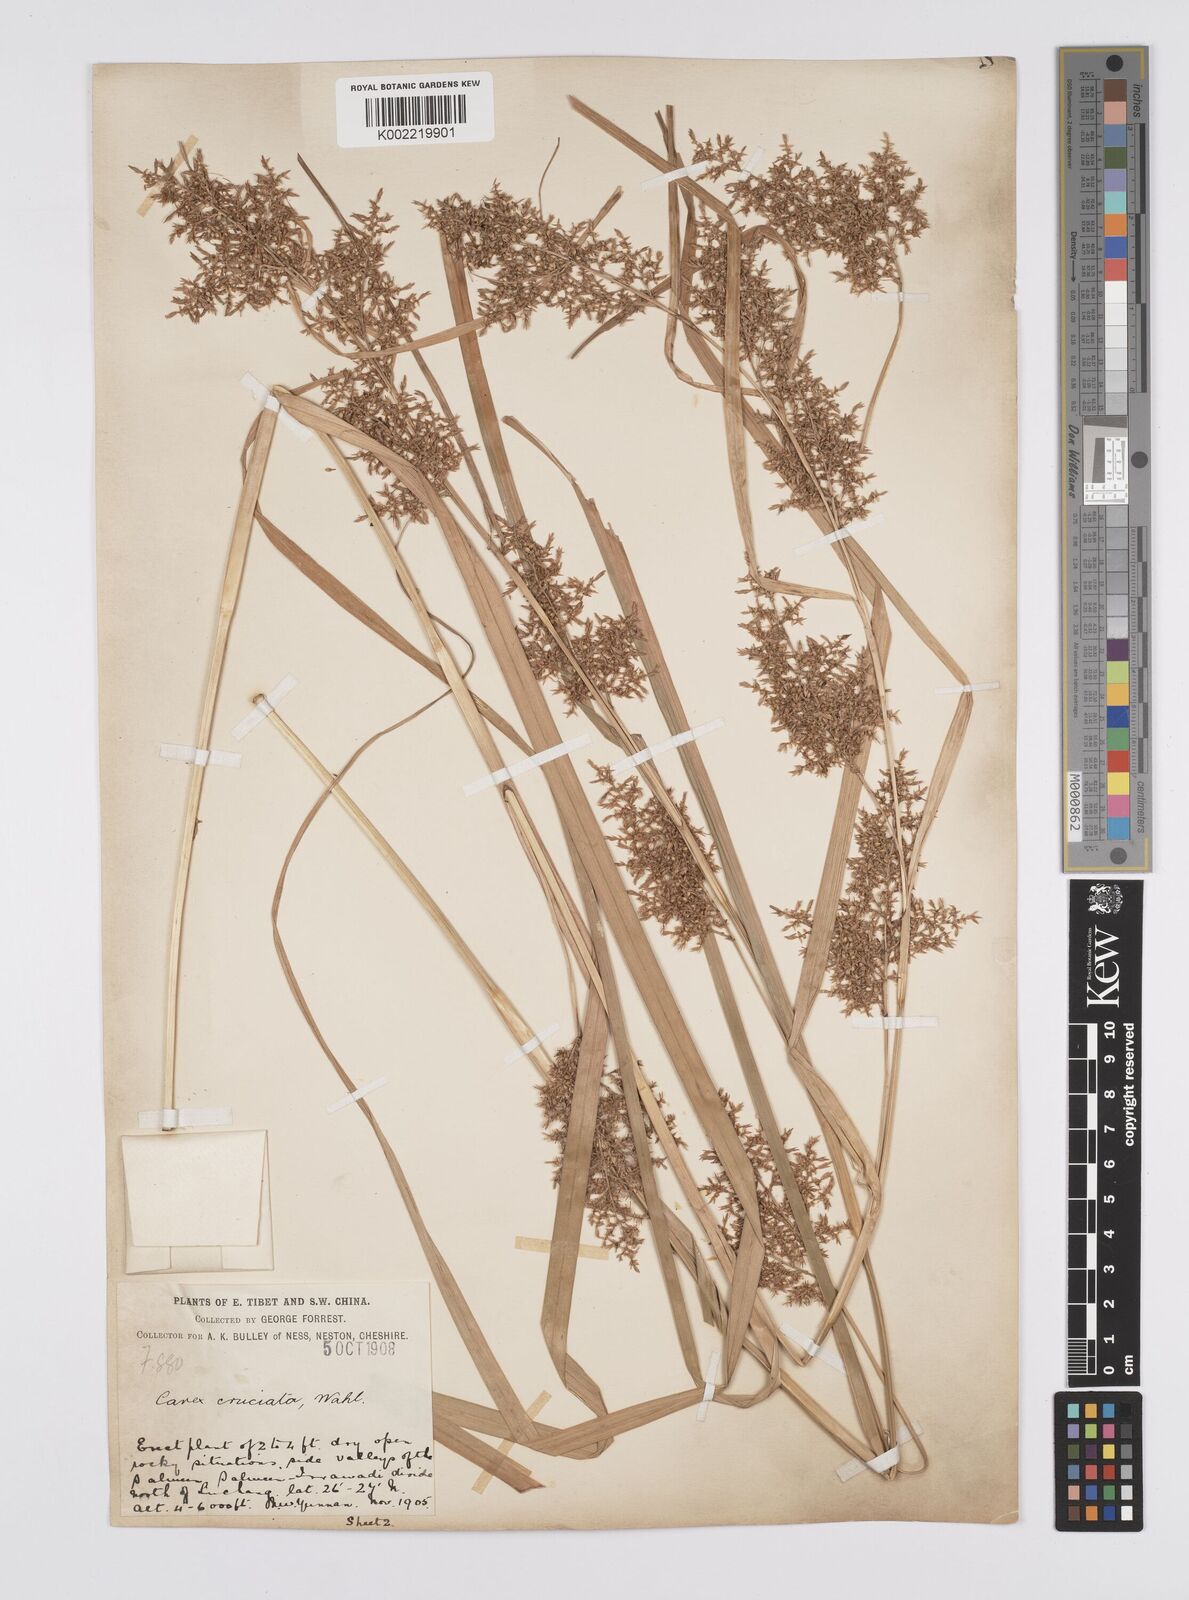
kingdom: Plantae
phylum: Tracheophyta
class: Liliopsida
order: Poales
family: Cyperaceae
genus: Carex
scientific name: Carex cruciata
